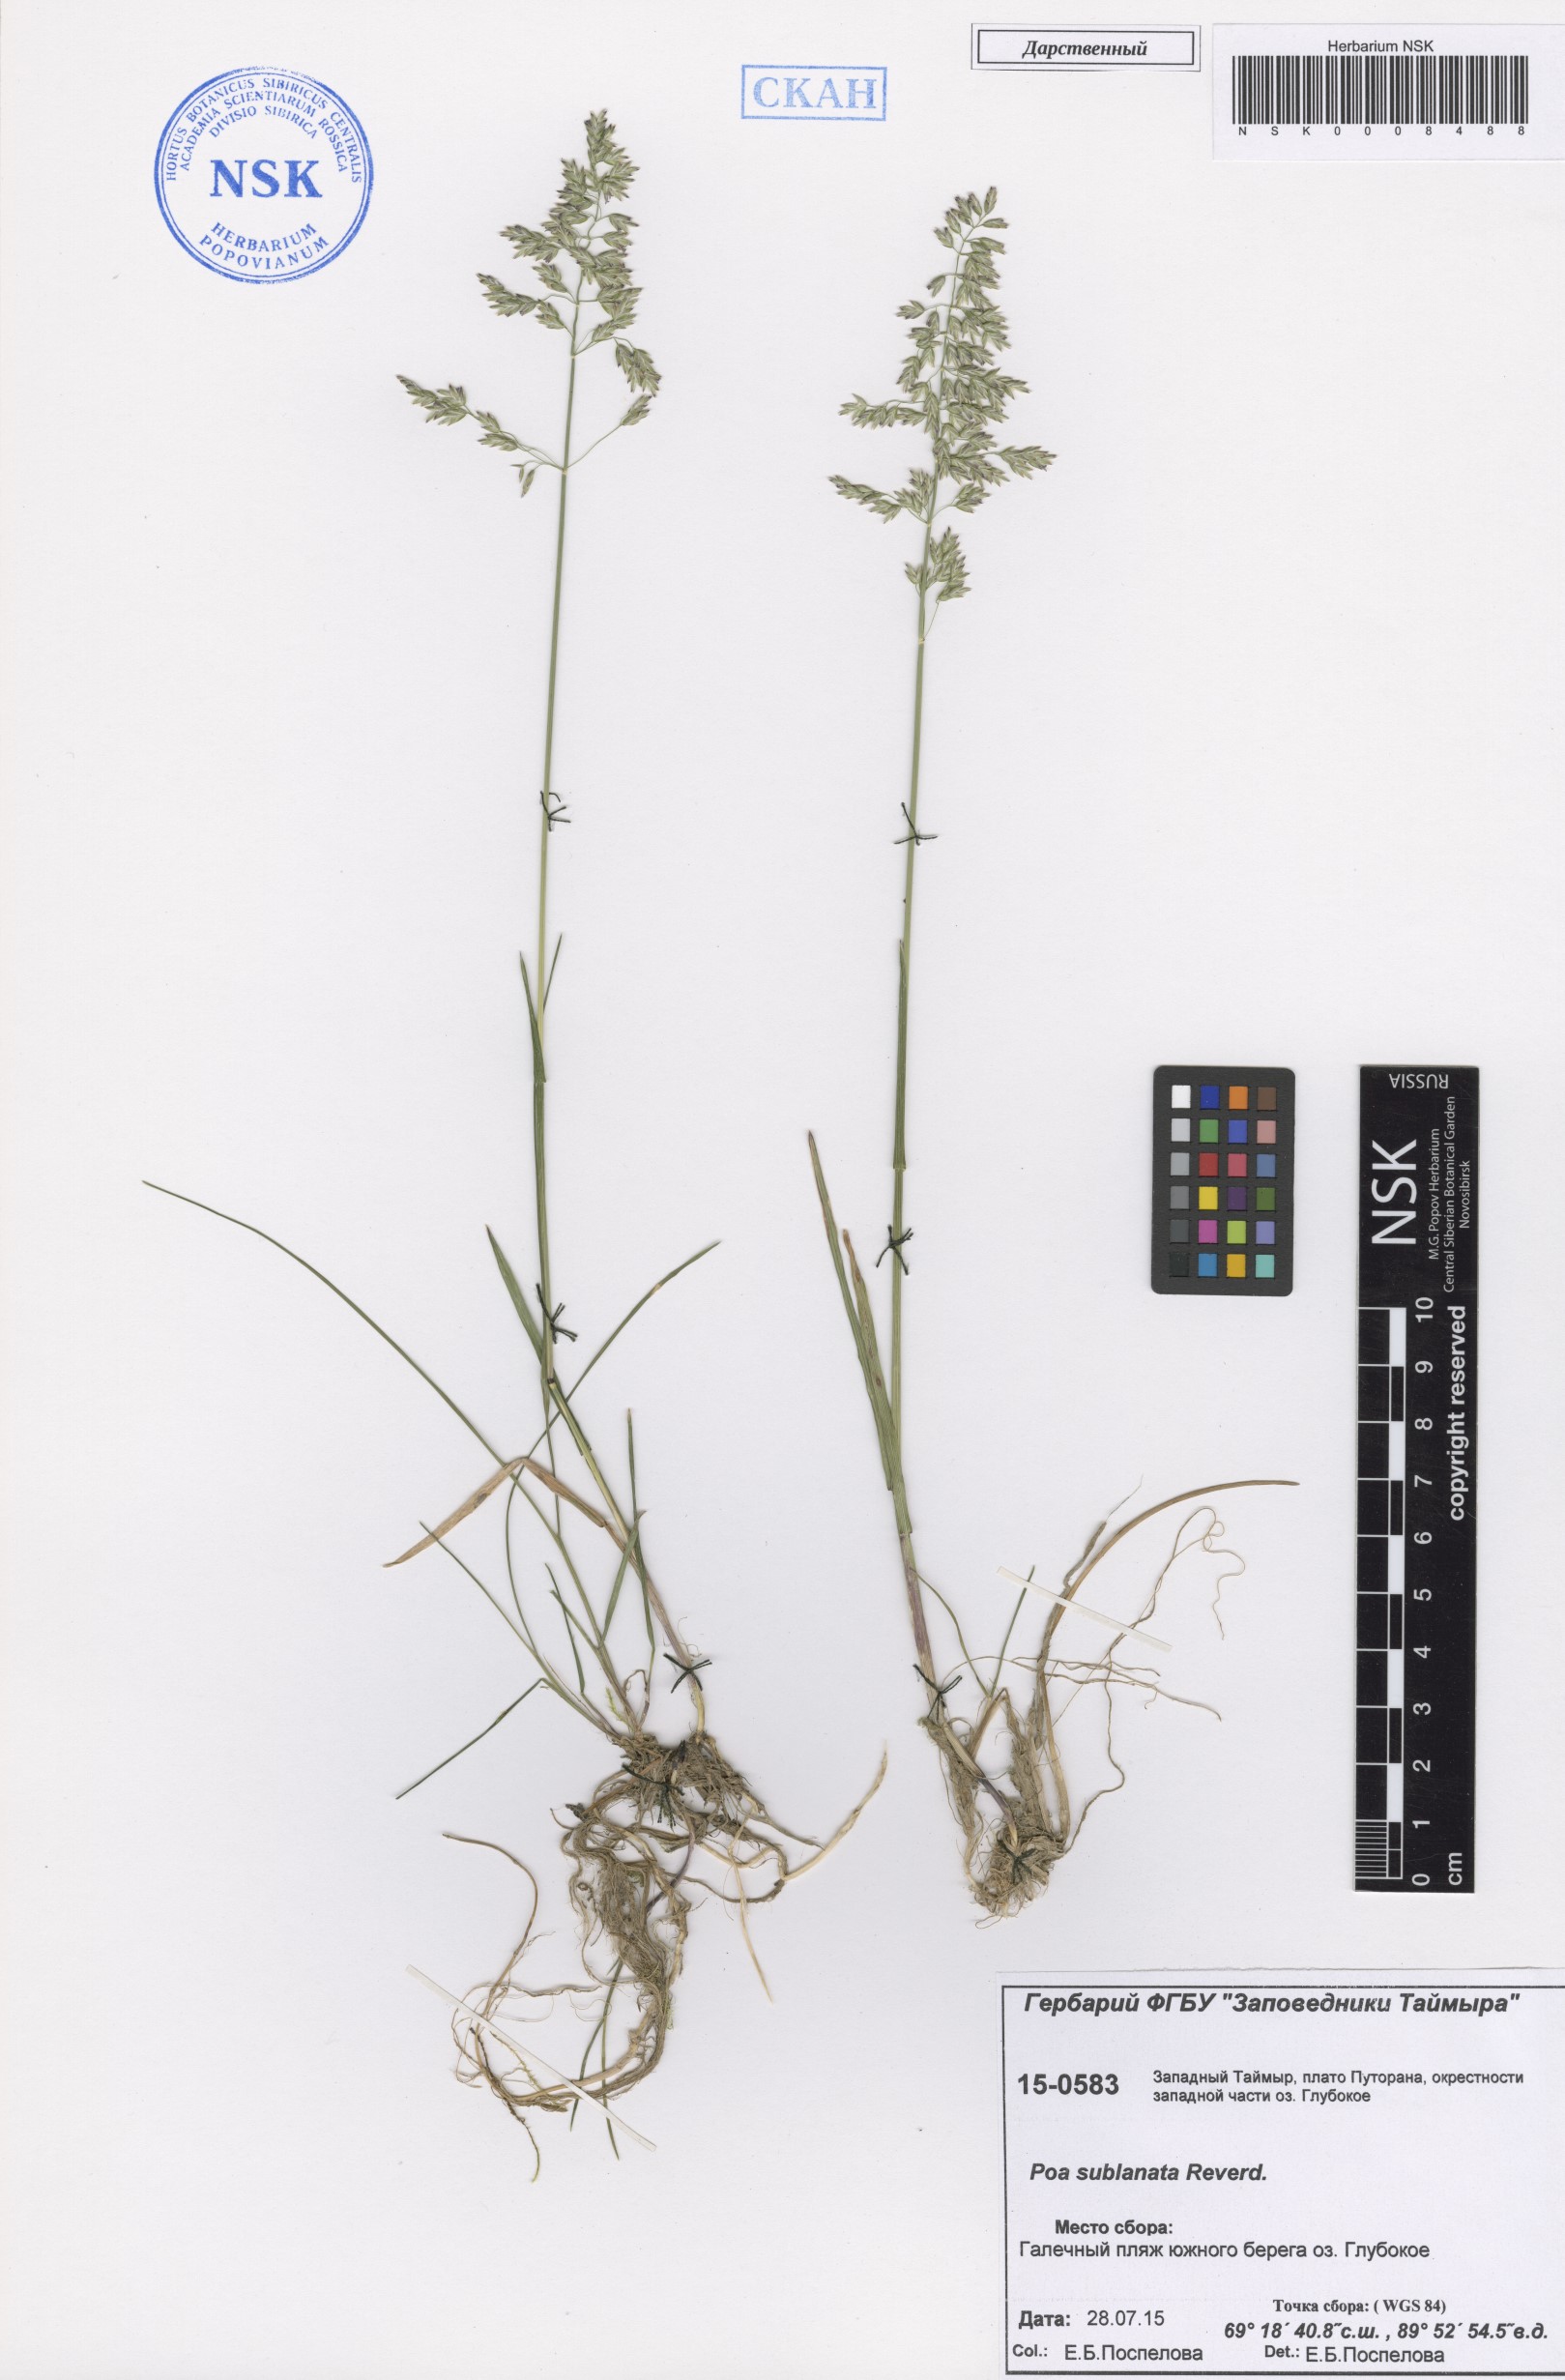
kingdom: Plantae
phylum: Tracheophyta
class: Liliopsida
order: Poales
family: Poaceae
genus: Poa
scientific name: Poa sublanata
